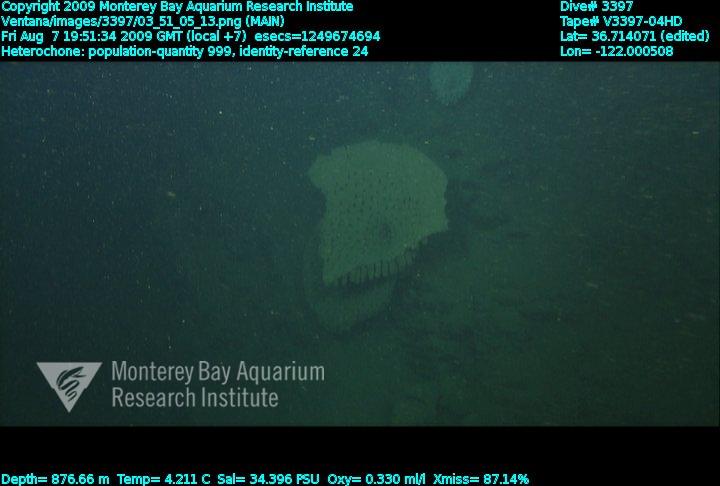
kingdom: Animalia
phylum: Porifera
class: Hexactinellida
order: Sceptrulophora
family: Aphrocallistidae
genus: Heterochone
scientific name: Heterochone
